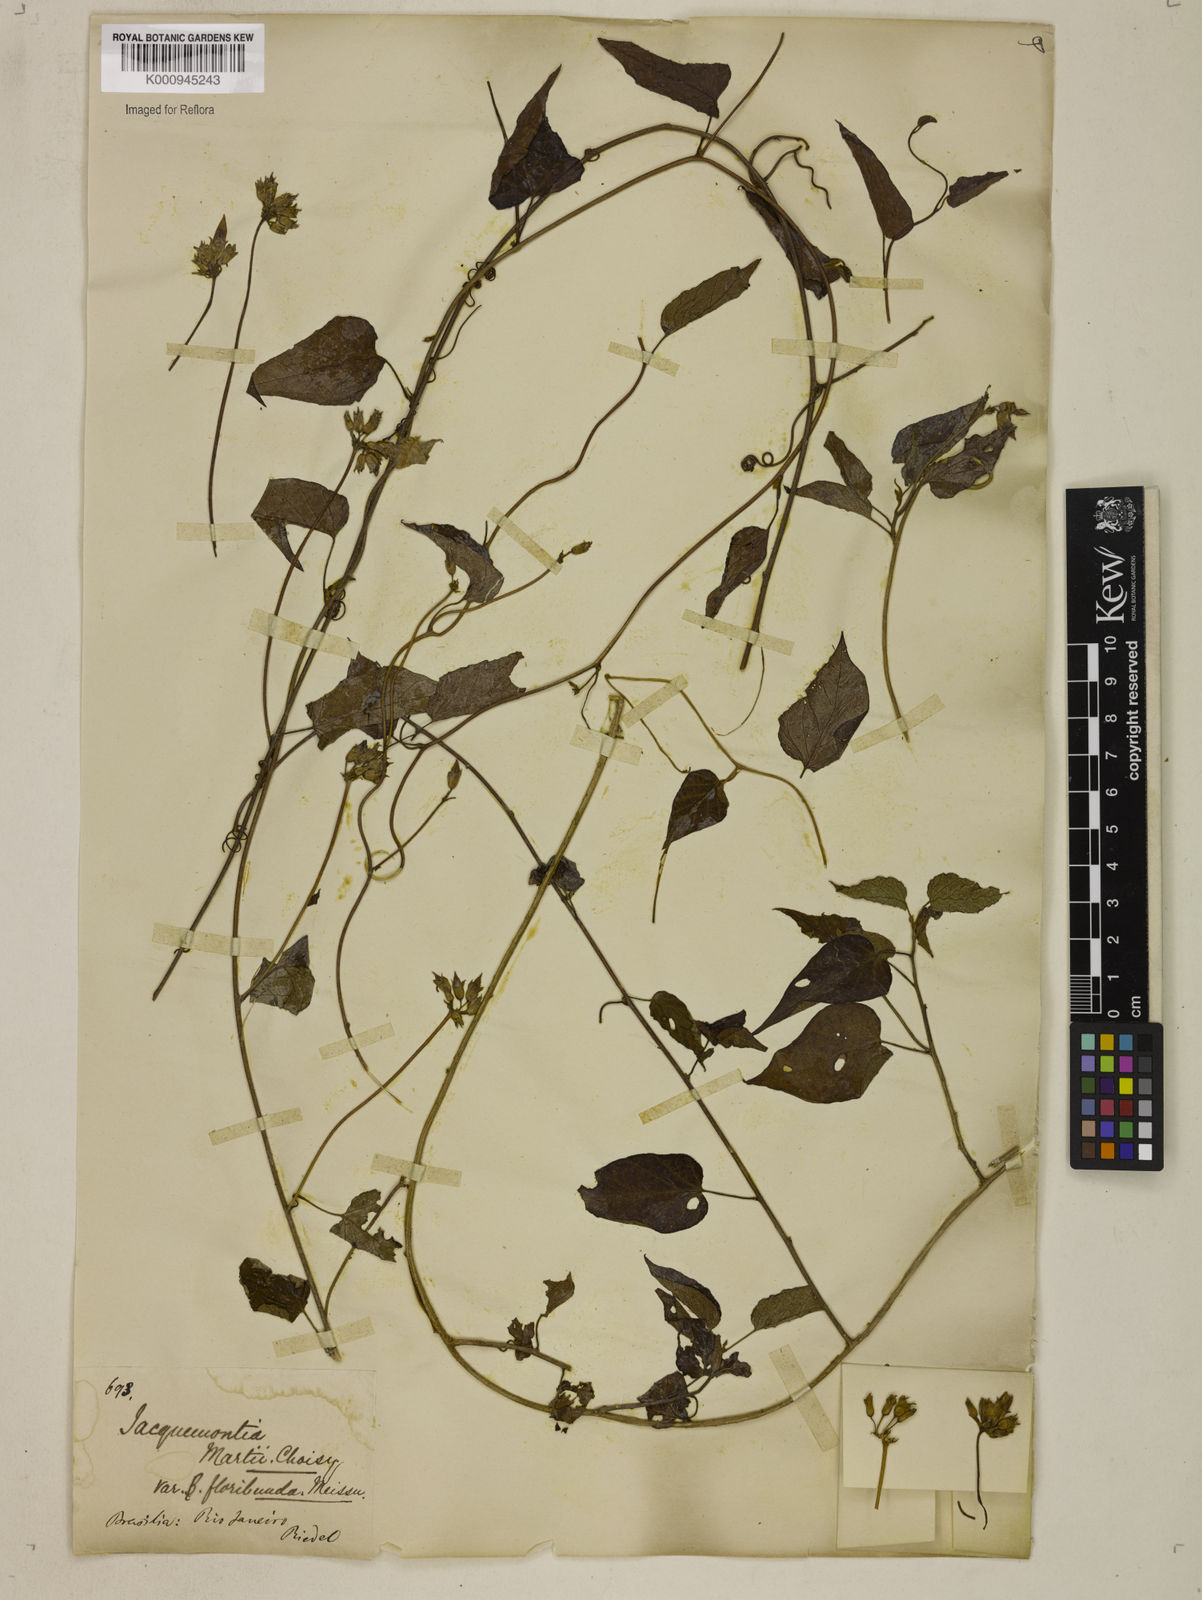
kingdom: Plantae
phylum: Tracheophyta
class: Magnoliopsida
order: Solanales
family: Convolvulaceae
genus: Jacquemontia
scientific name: Jacquemontia martii
